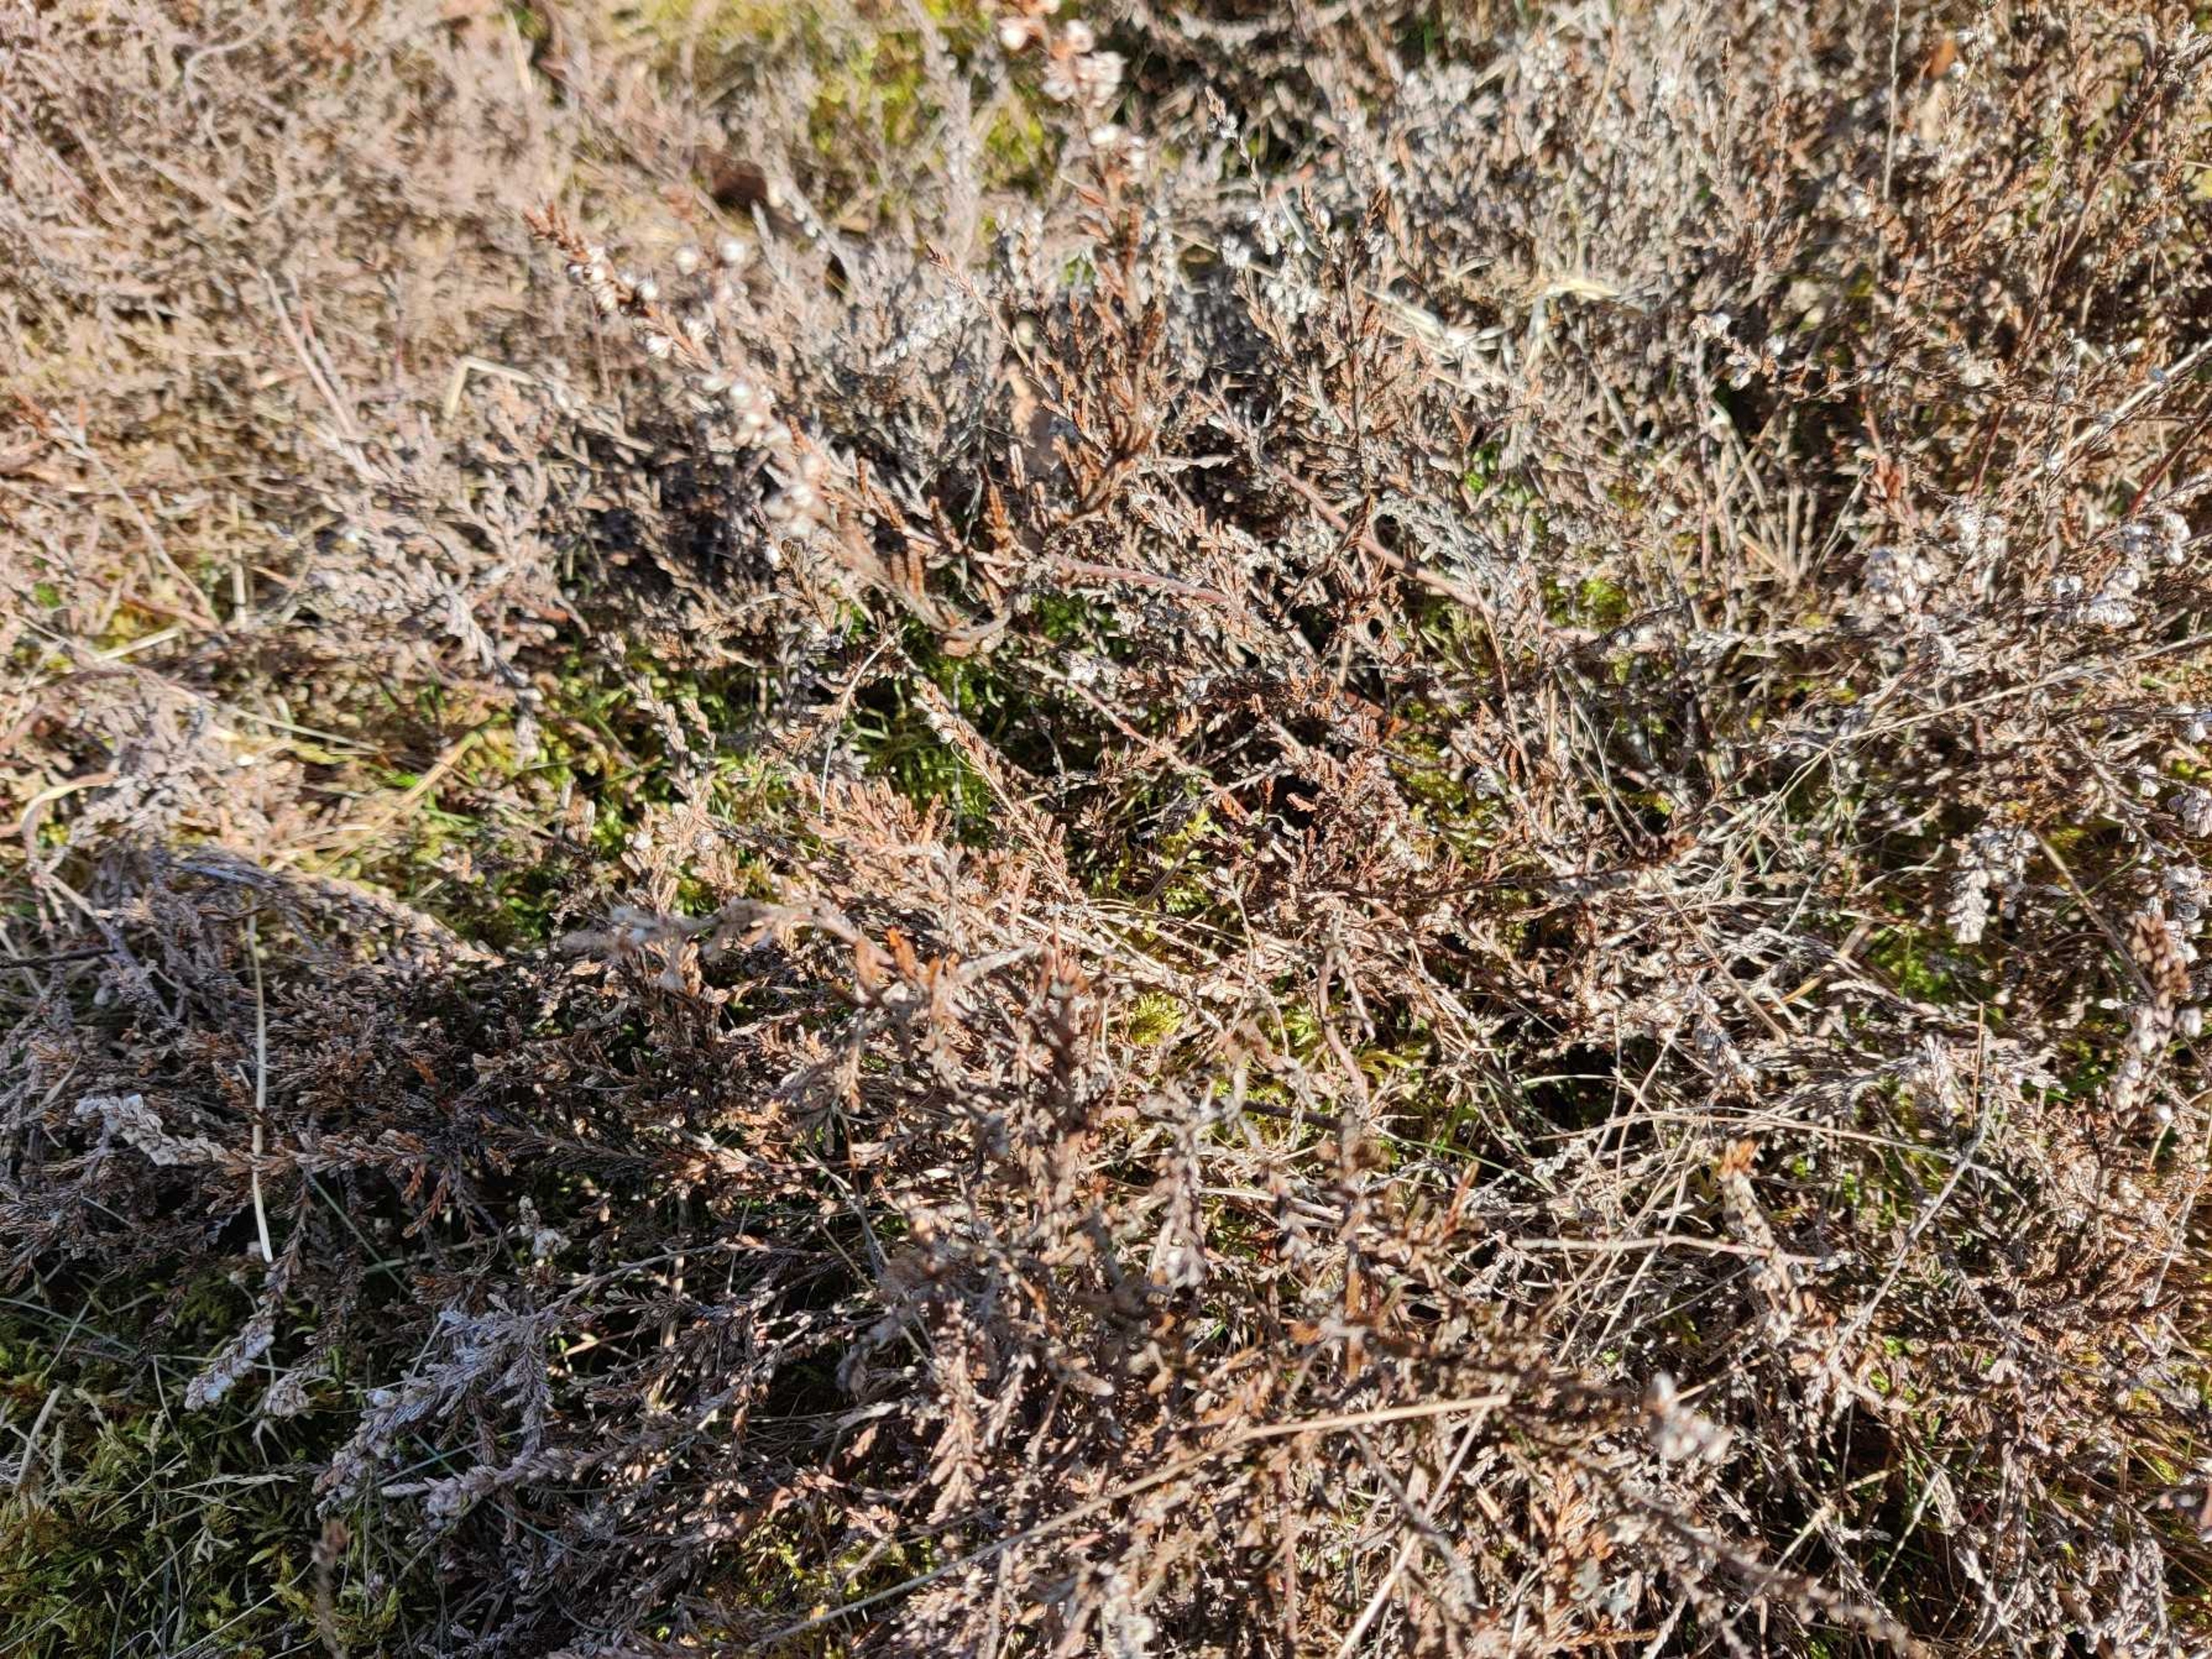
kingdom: Plantae
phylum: Tracheophyta
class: Magnoliopsida
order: Ericales
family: Ericaceae
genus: Calluna
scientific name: Calluna vulgaris
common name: Hedelyng
